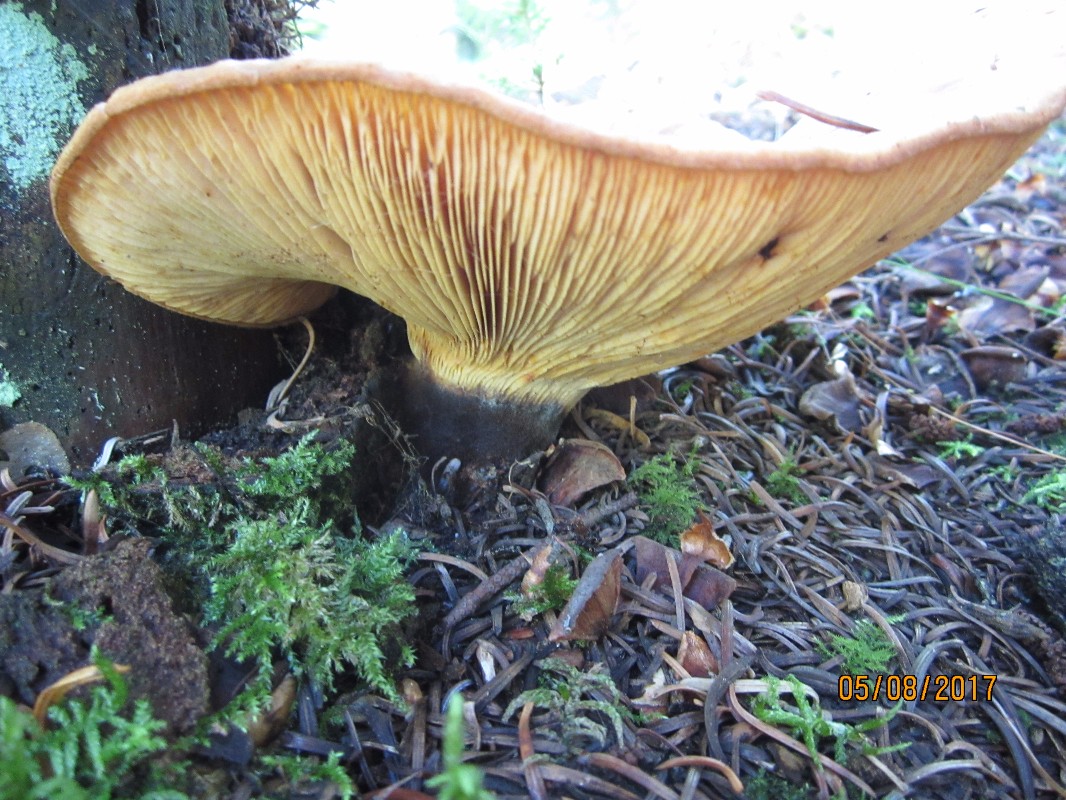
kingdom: Fungi
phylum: Basidiomycota
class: Agaricomycetes
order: Boletales
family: Tapinellaceae
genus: Tapinella
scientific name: Tapinella atrotomentosa
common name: sortfiltet viftesvamp
